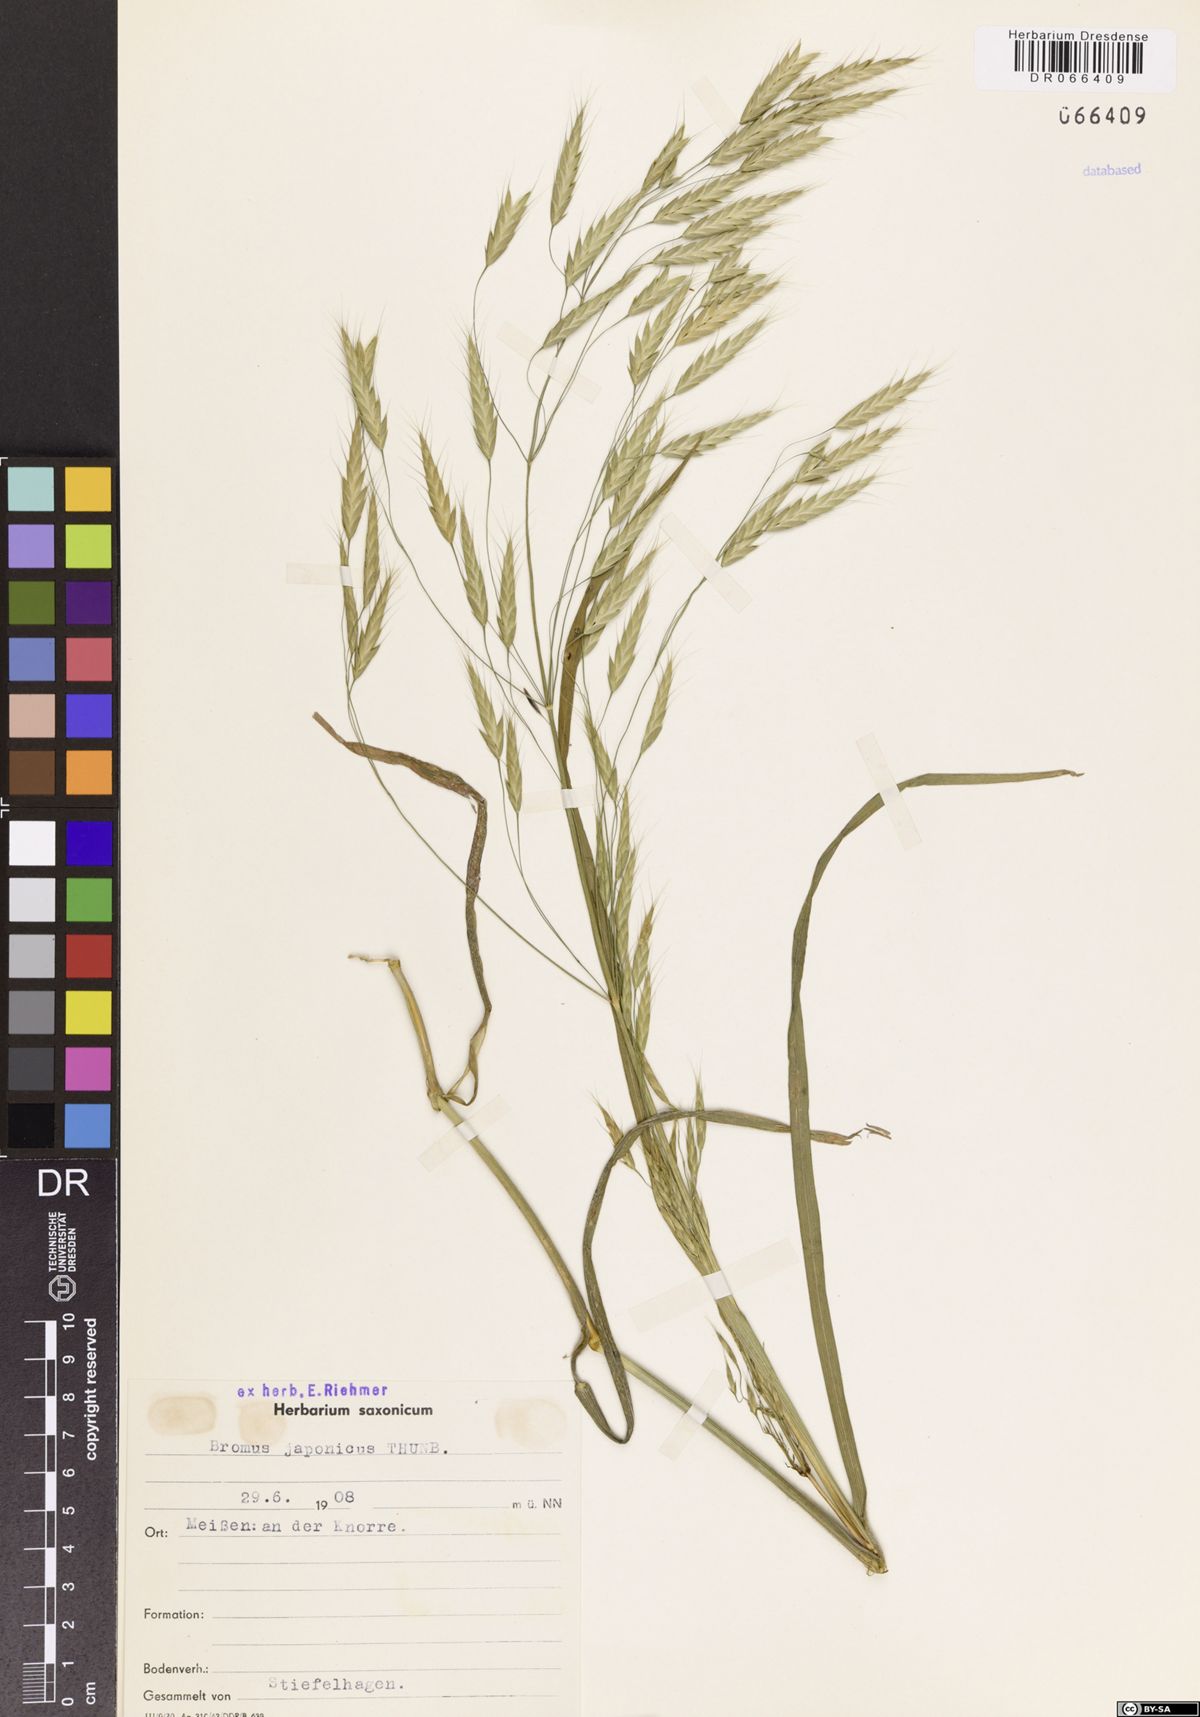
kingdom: Plantae
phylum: Tracheophyta
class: Liliopsida
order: Poales
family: Poaceae
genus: Bromus
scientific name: Bromus japonicus
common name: Japanese brome
